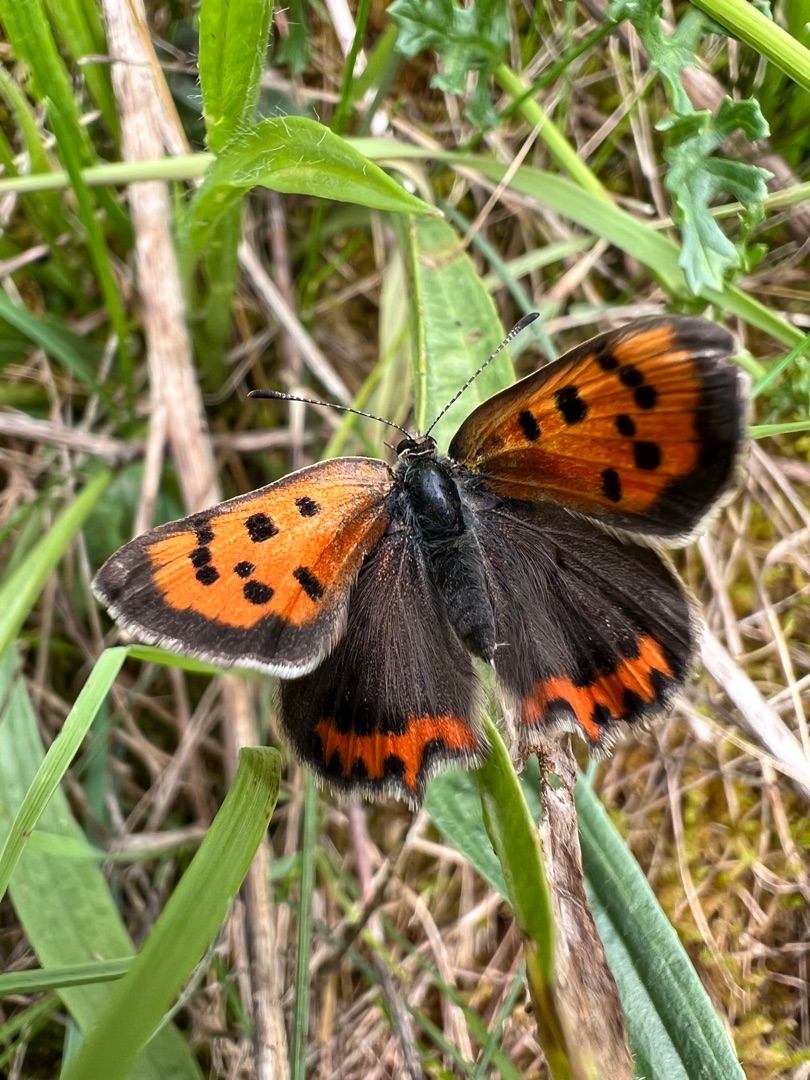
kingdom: Animalia
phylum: Arthropoda
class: Insecta
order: Lepidoptera
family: Lycaenidae
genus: Lycaena
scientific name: Lycaena phlaeas
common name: Lille ildfugl
